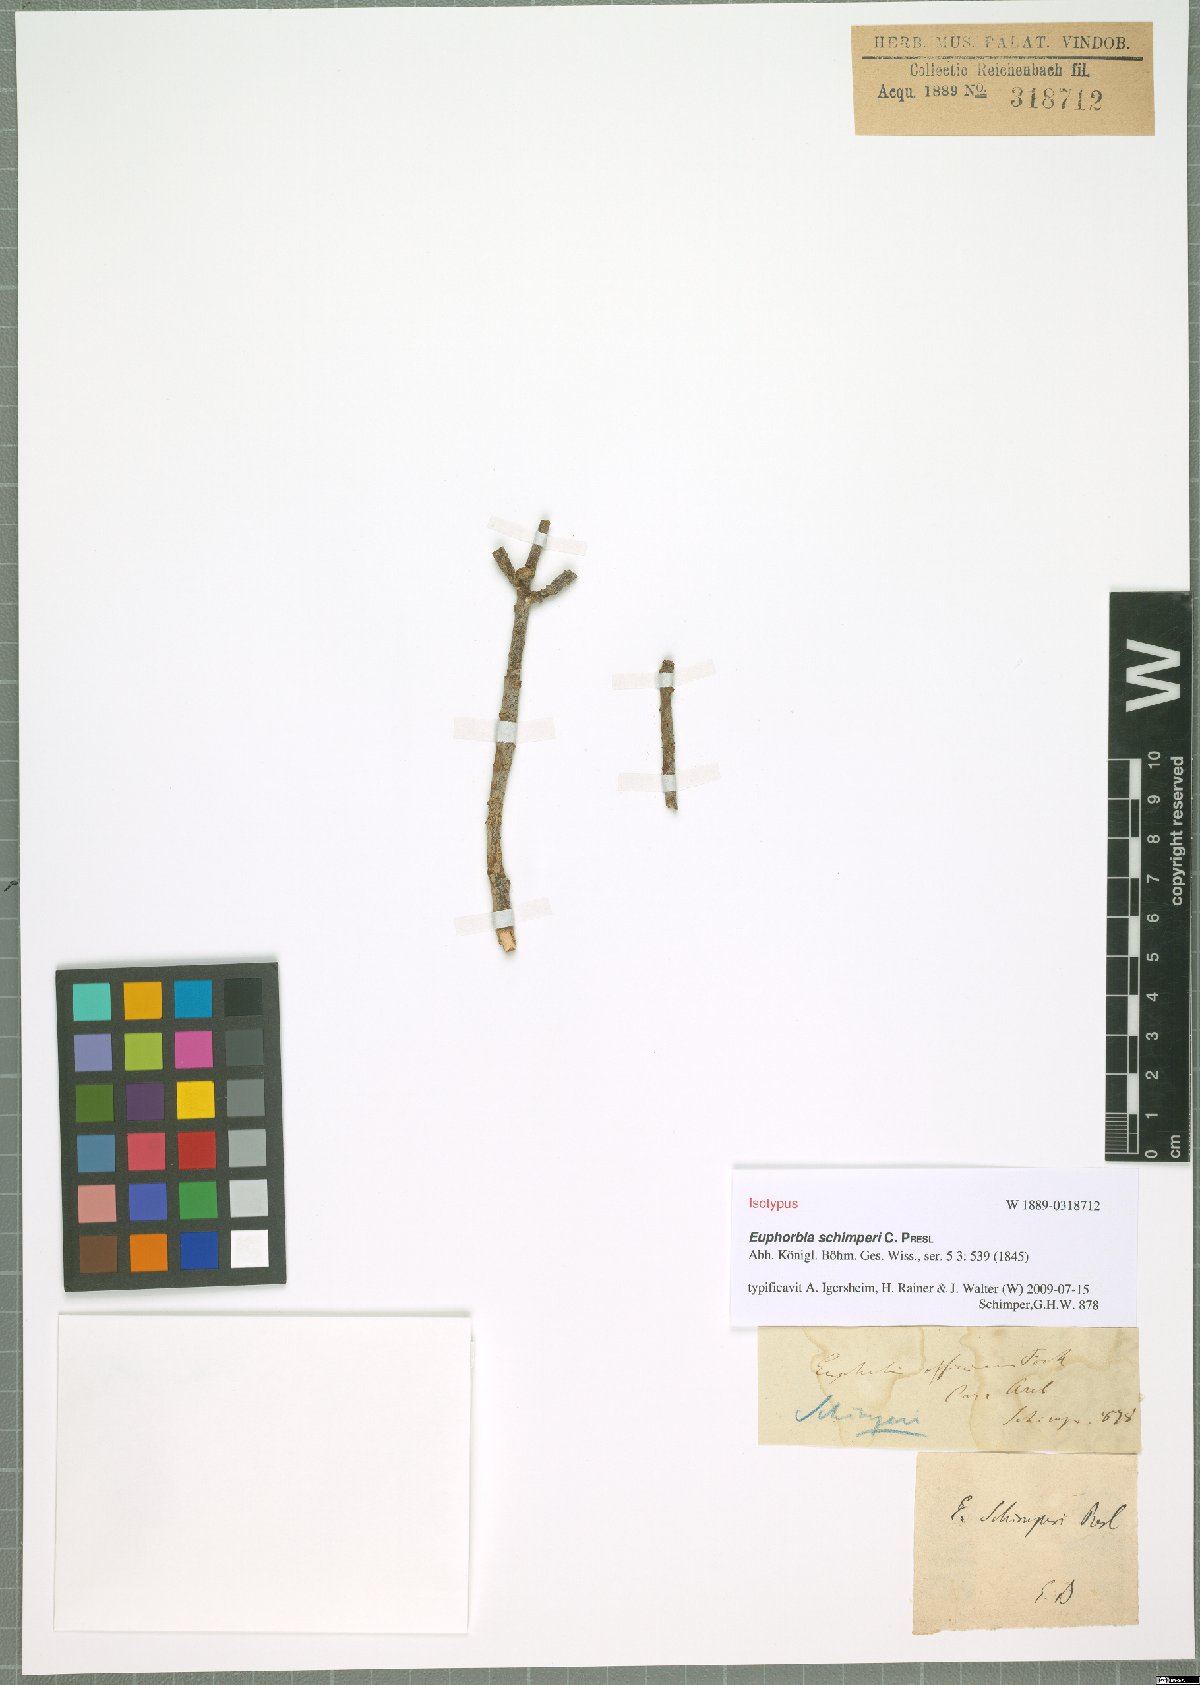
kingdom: Plantae
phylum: Tracheophyta
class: Magnoliopsida
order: Malpighiales
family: Euphorbiaceae
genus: Euphorbia
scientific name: Euphorbia schimperi
